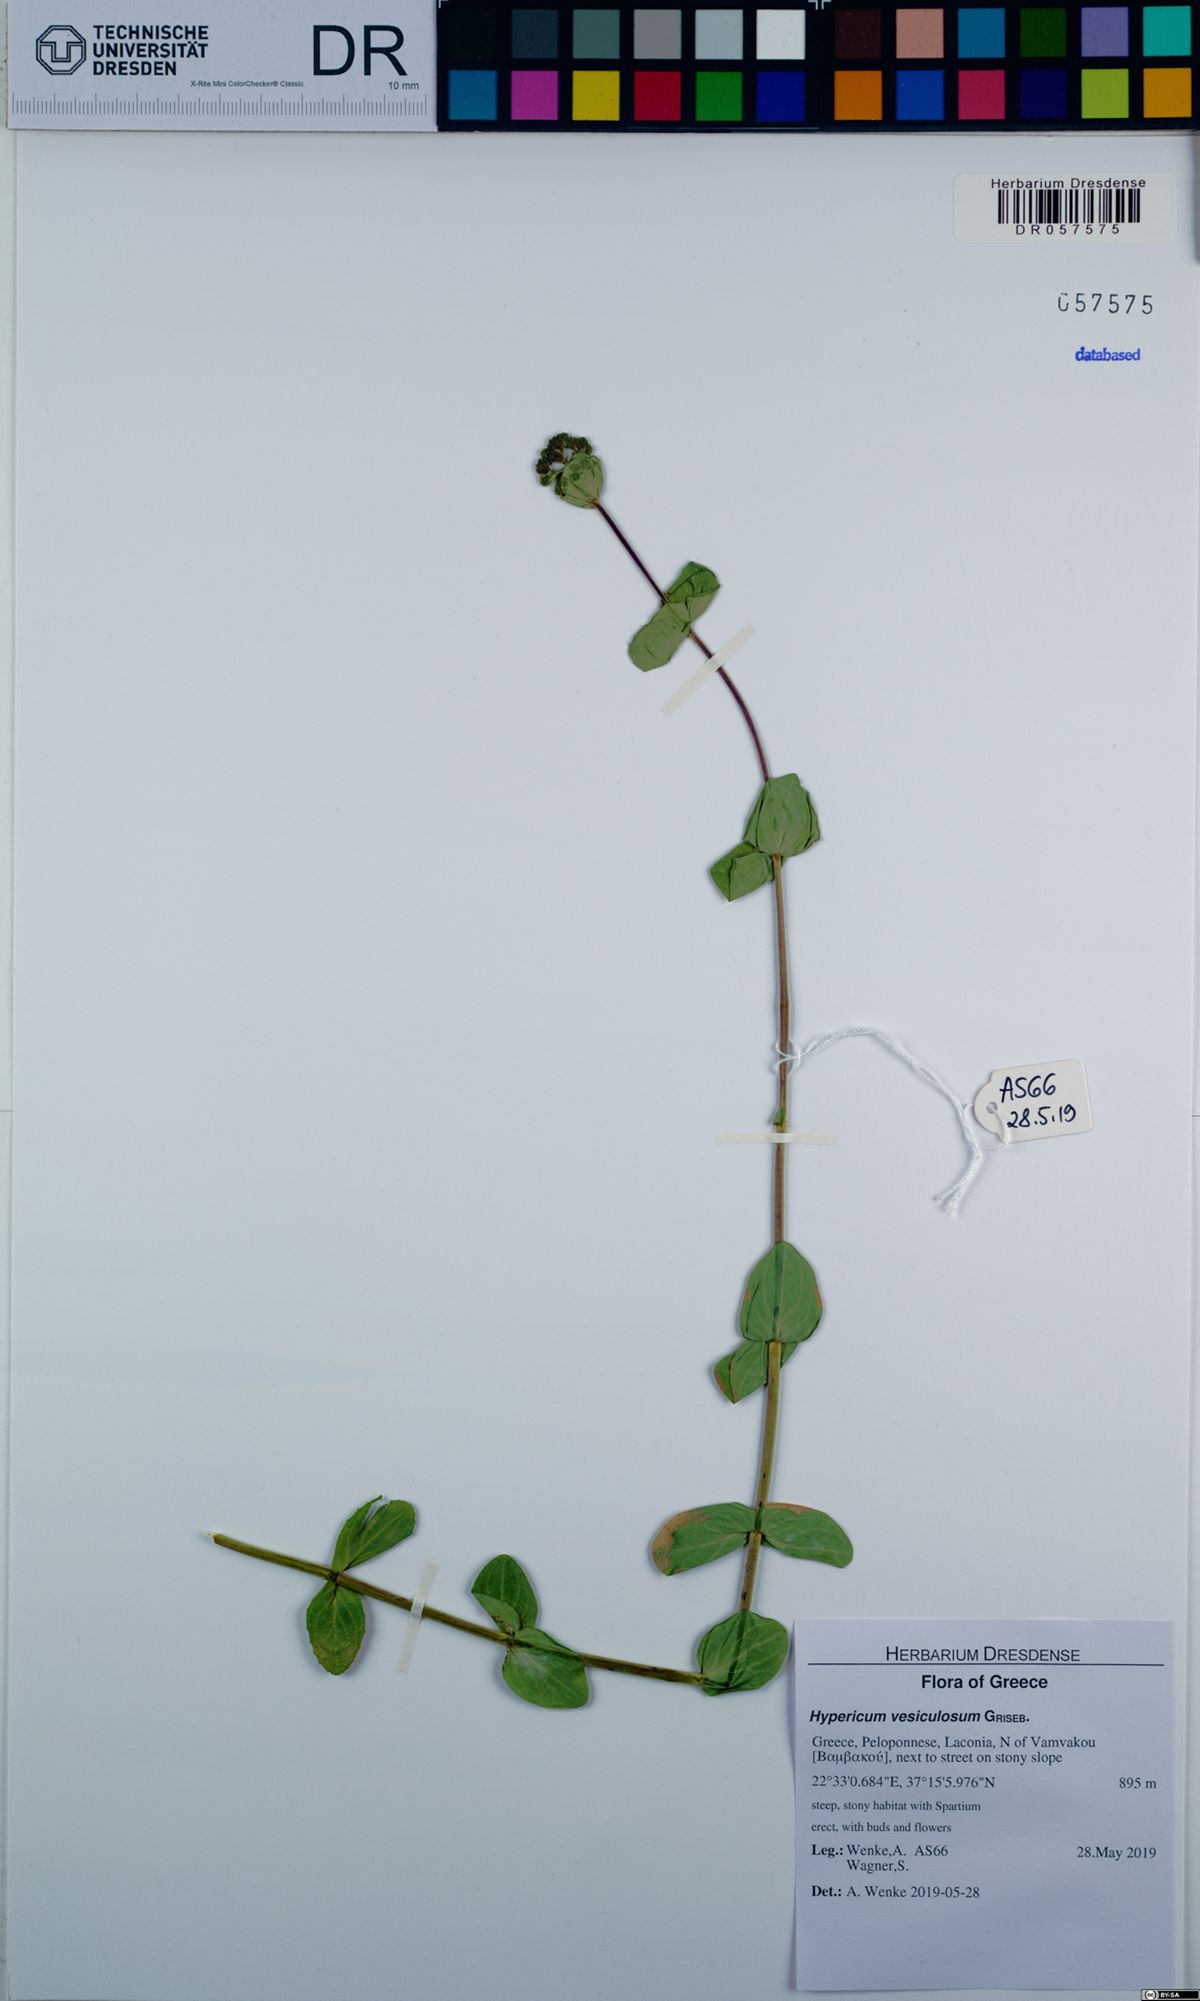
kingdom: Plantae
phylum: Tracheophyta
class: Magnoliopsida
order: Malpighiales
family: Hypericaceae
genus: Hypericum
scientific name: Hypericum vesiculosum
